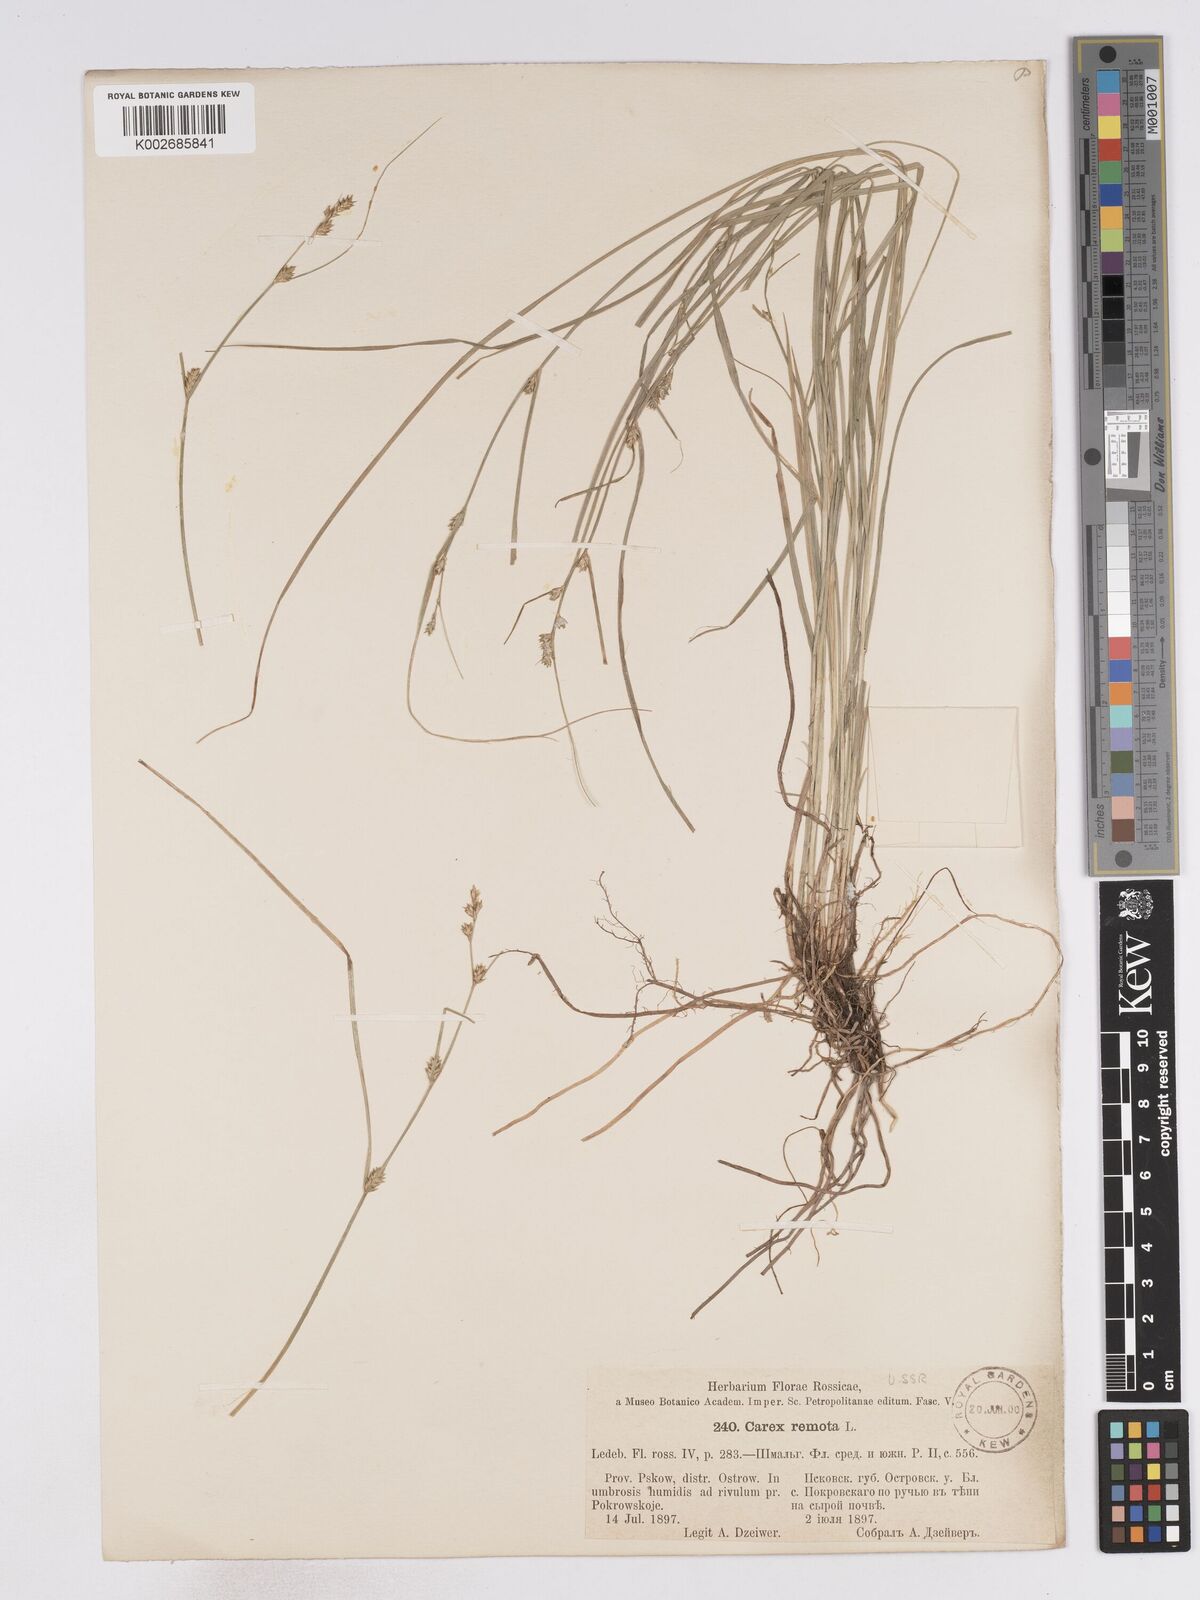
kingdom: Plantae
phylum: Tracheophyta
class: Liliopsida
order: Poales
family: Cyperaceae
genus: Carex
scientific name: Carex remota
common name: Remote sedge
